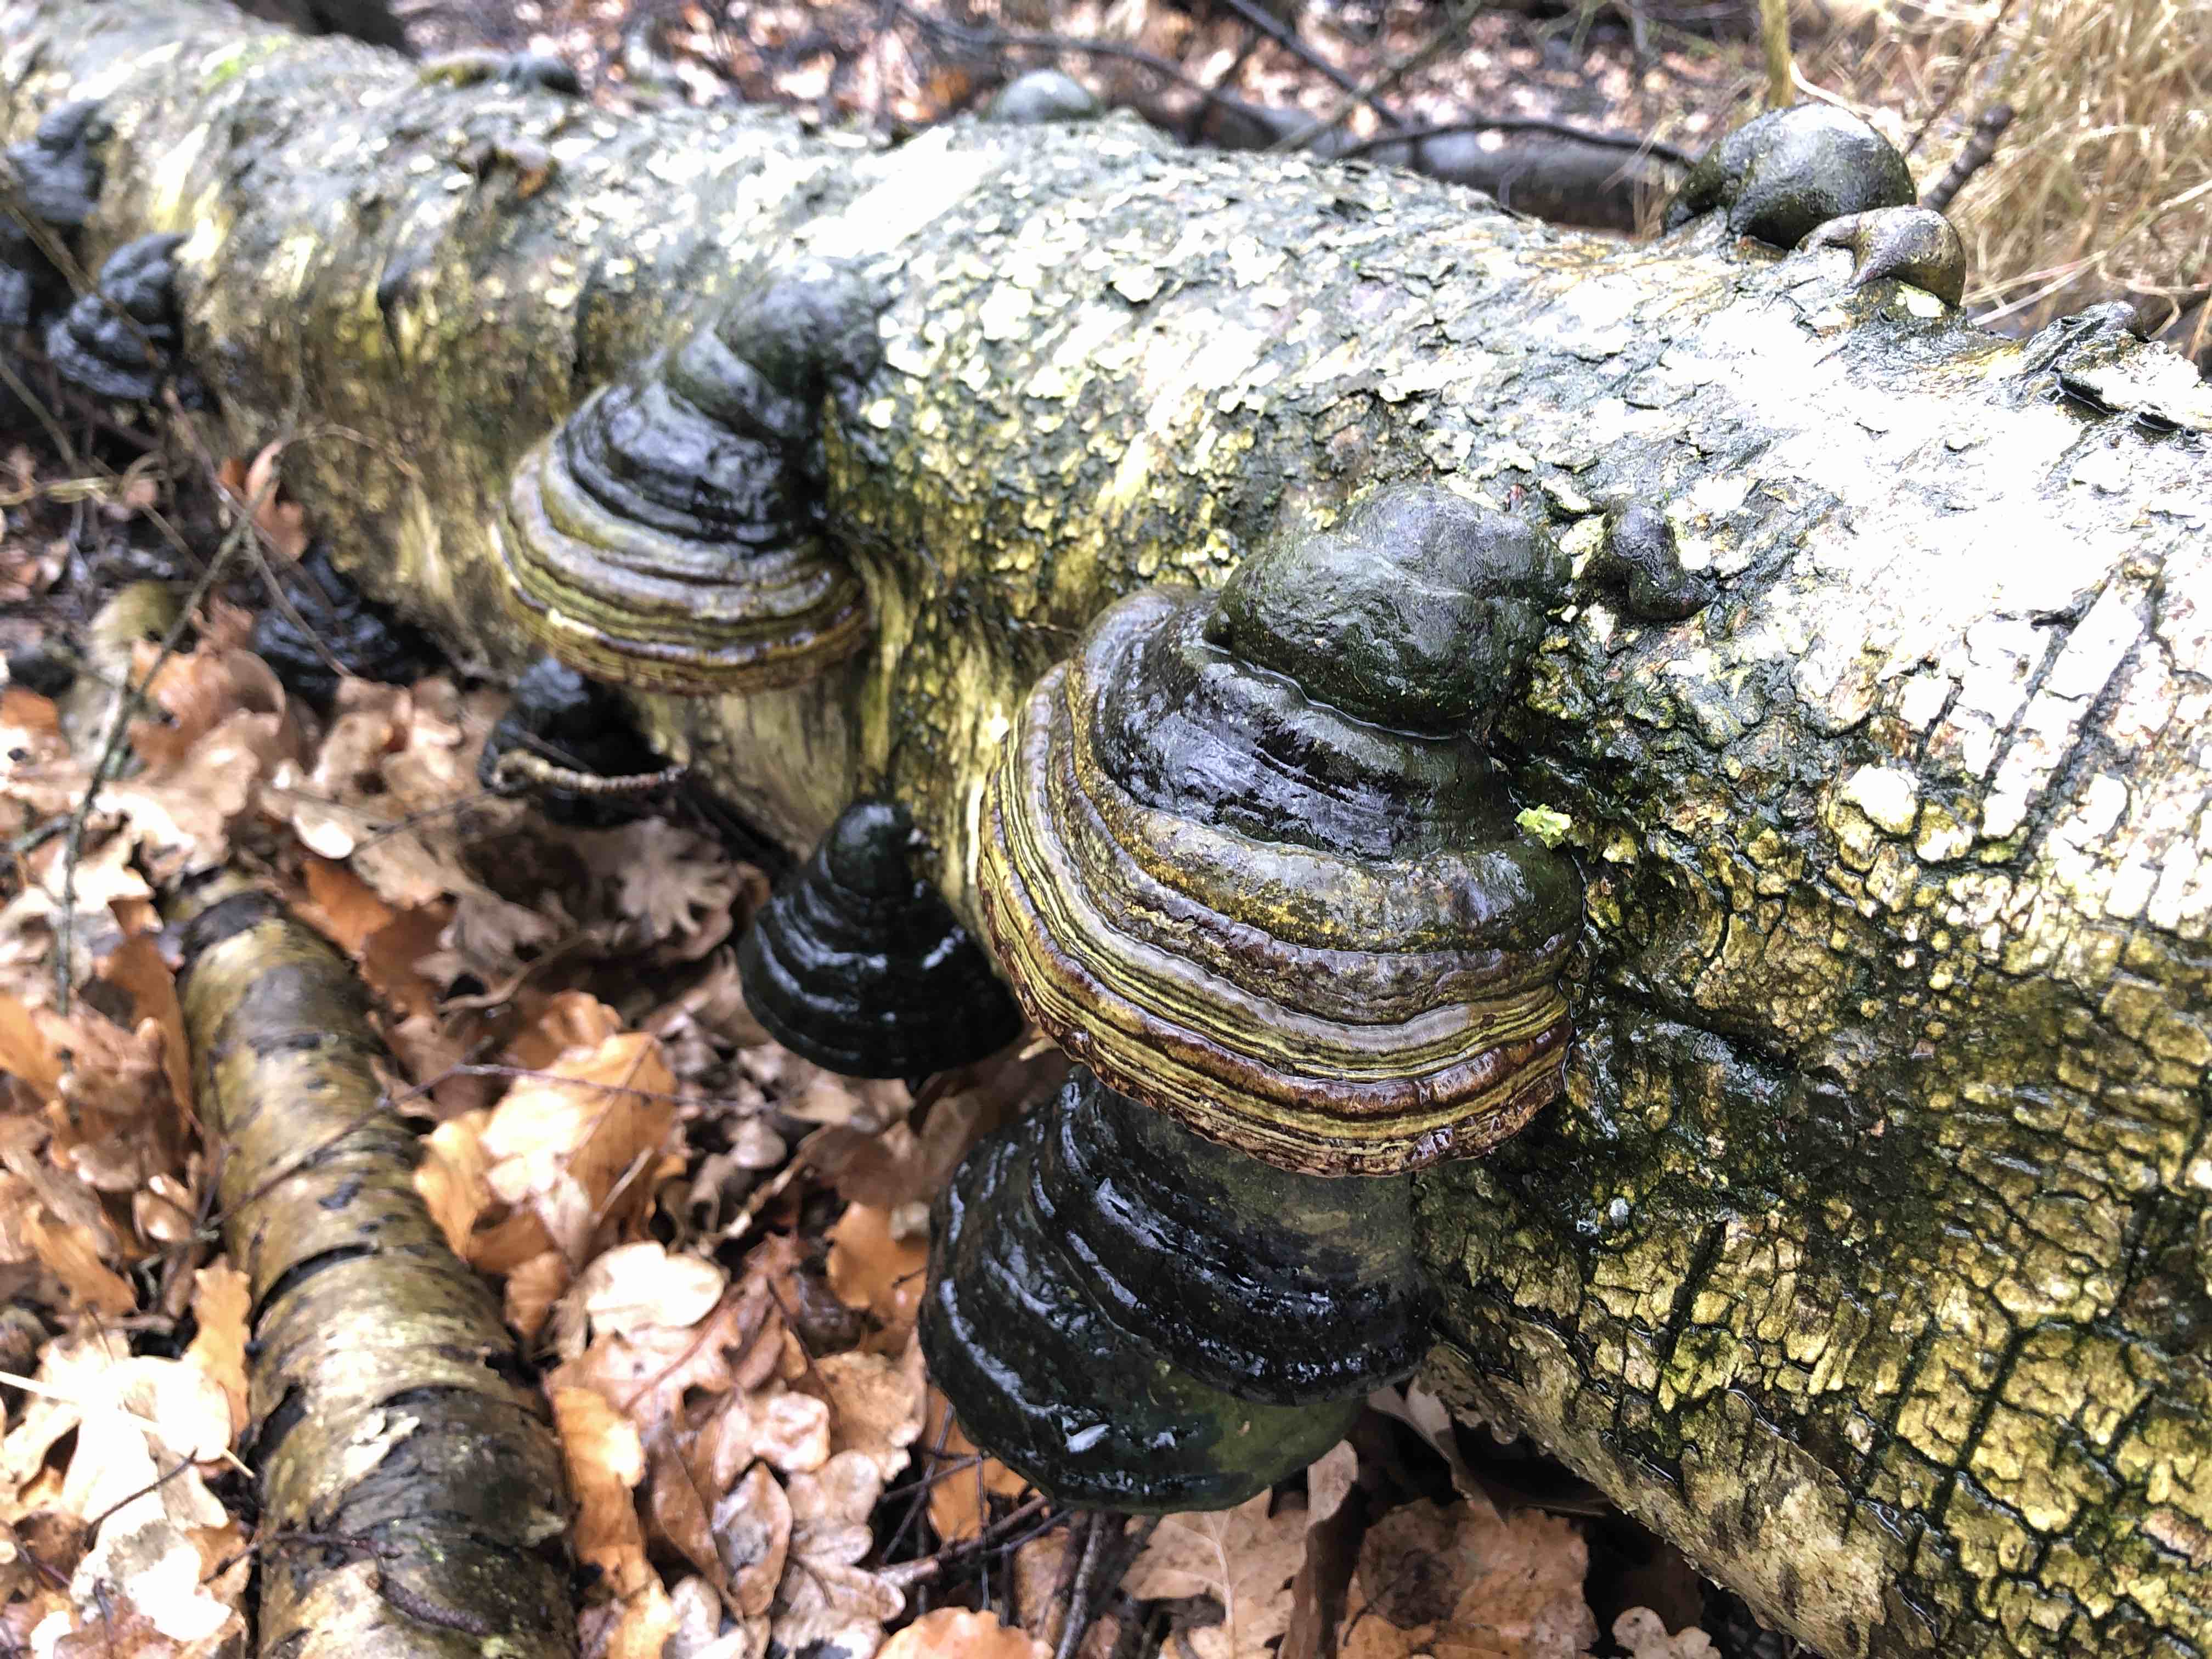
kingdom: Fungi
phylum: Basidiomycota
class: Agaricomycetes
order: Polyporales
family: Polyporaceae
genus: Fomes
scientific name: Fomes fomentarius
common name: tøndersvamp
